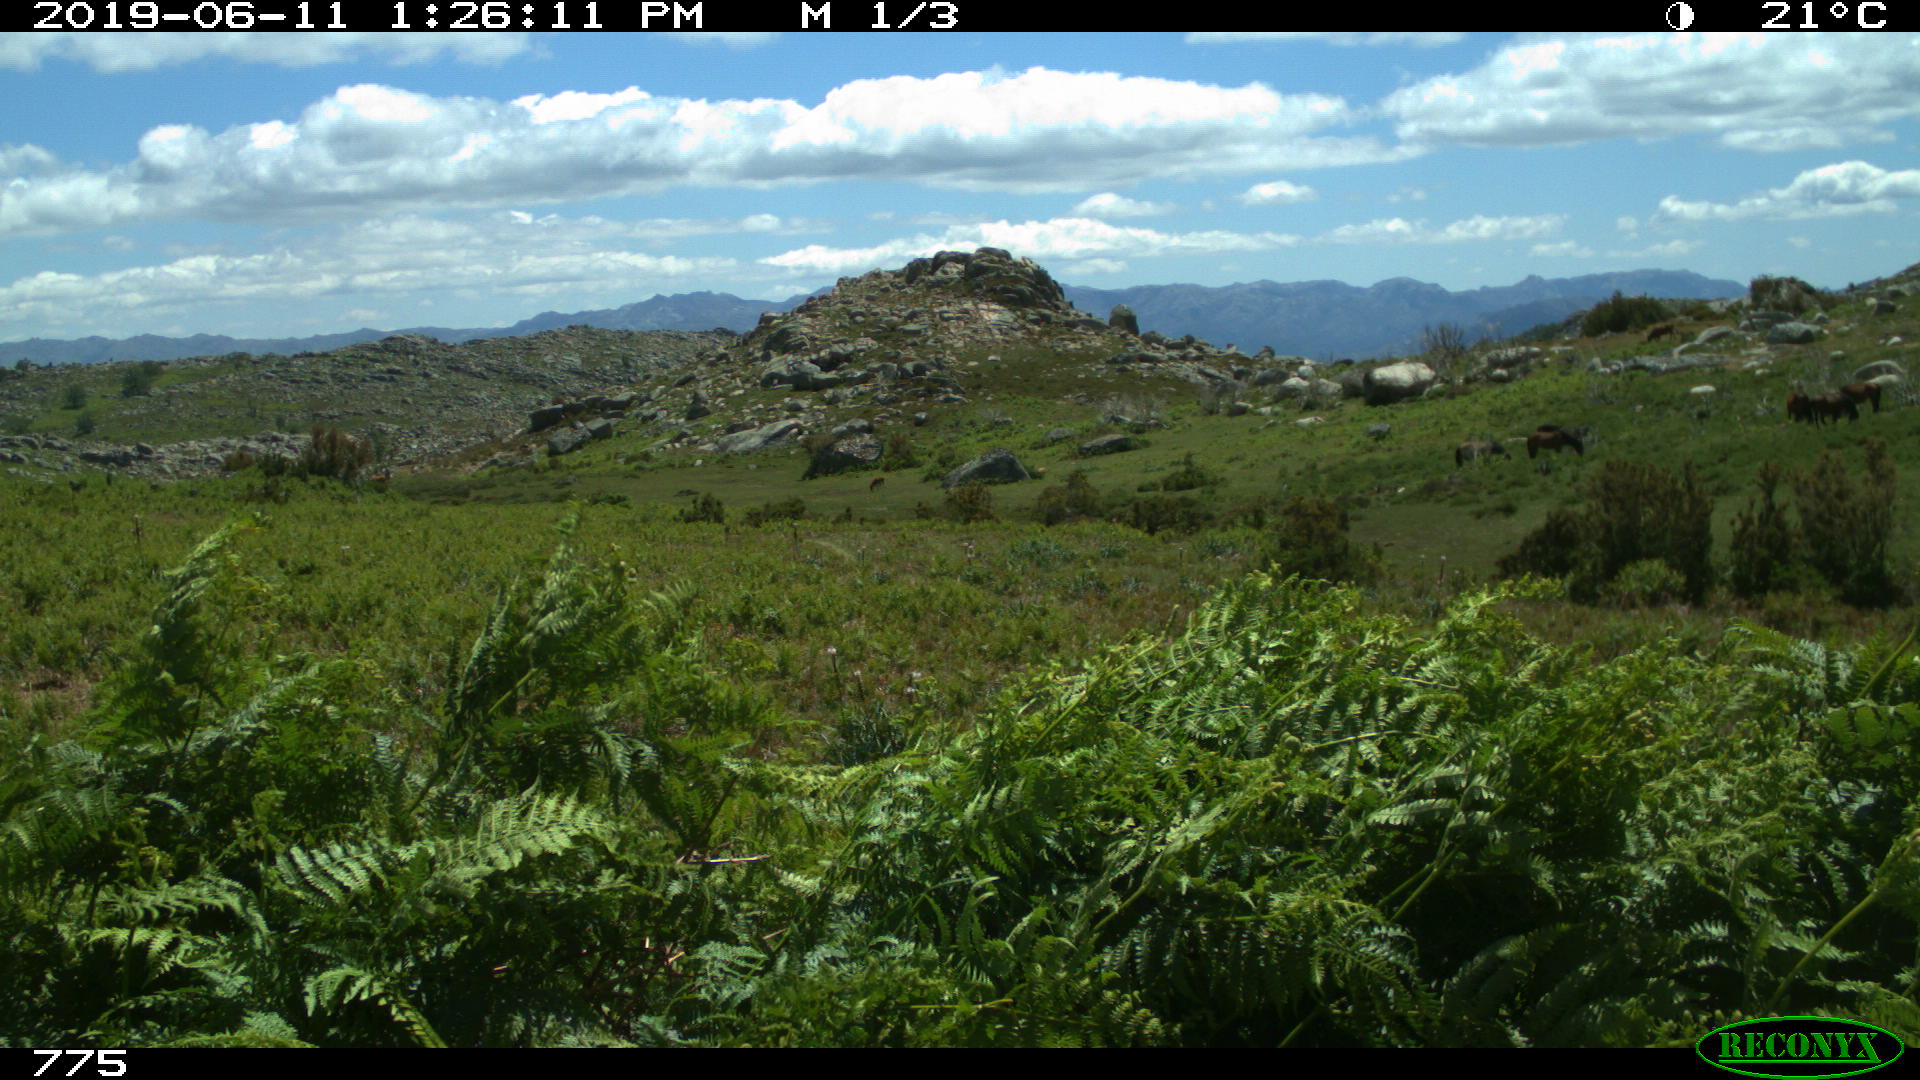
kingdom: Animalia
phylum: Chordata
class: Mammalia
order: Perissodactyla
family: Equidae
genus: Equus
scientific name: Equus caballus
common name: Horse
